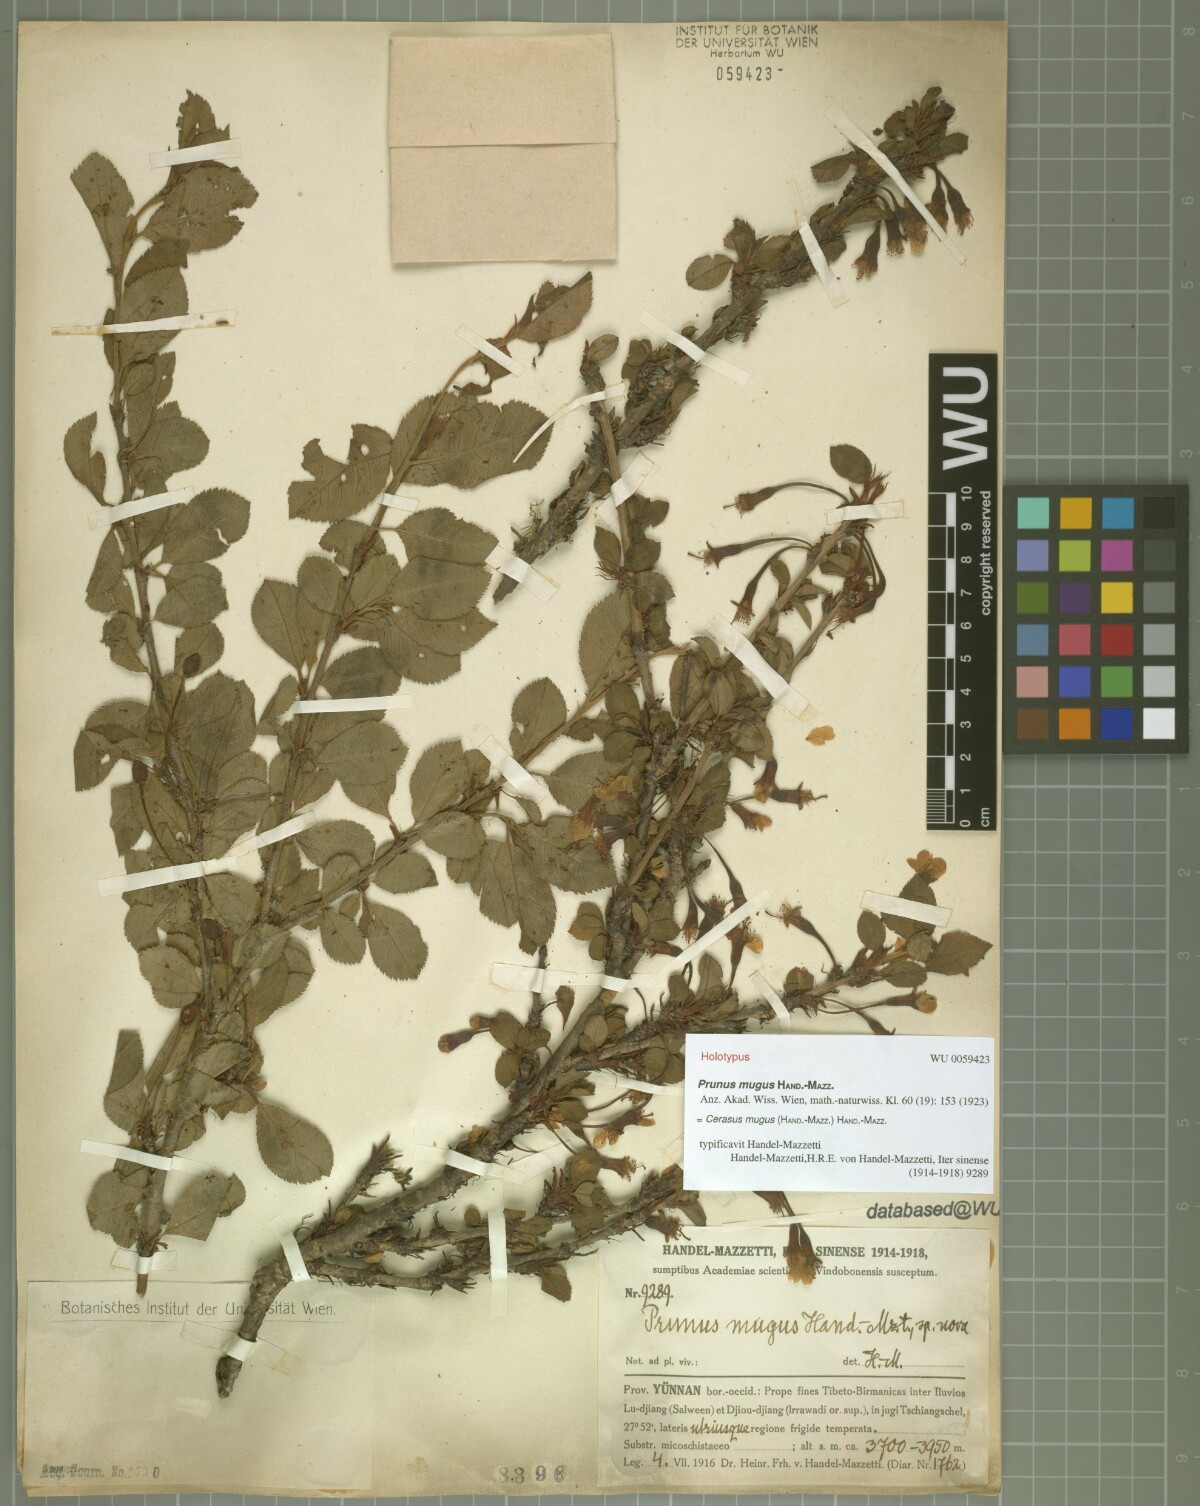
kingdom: Plantae
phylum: Tracheophyta
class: Magnoliopsida
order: Rosales
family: Rosaceae
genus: Prunus
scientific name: Prunus mugus
